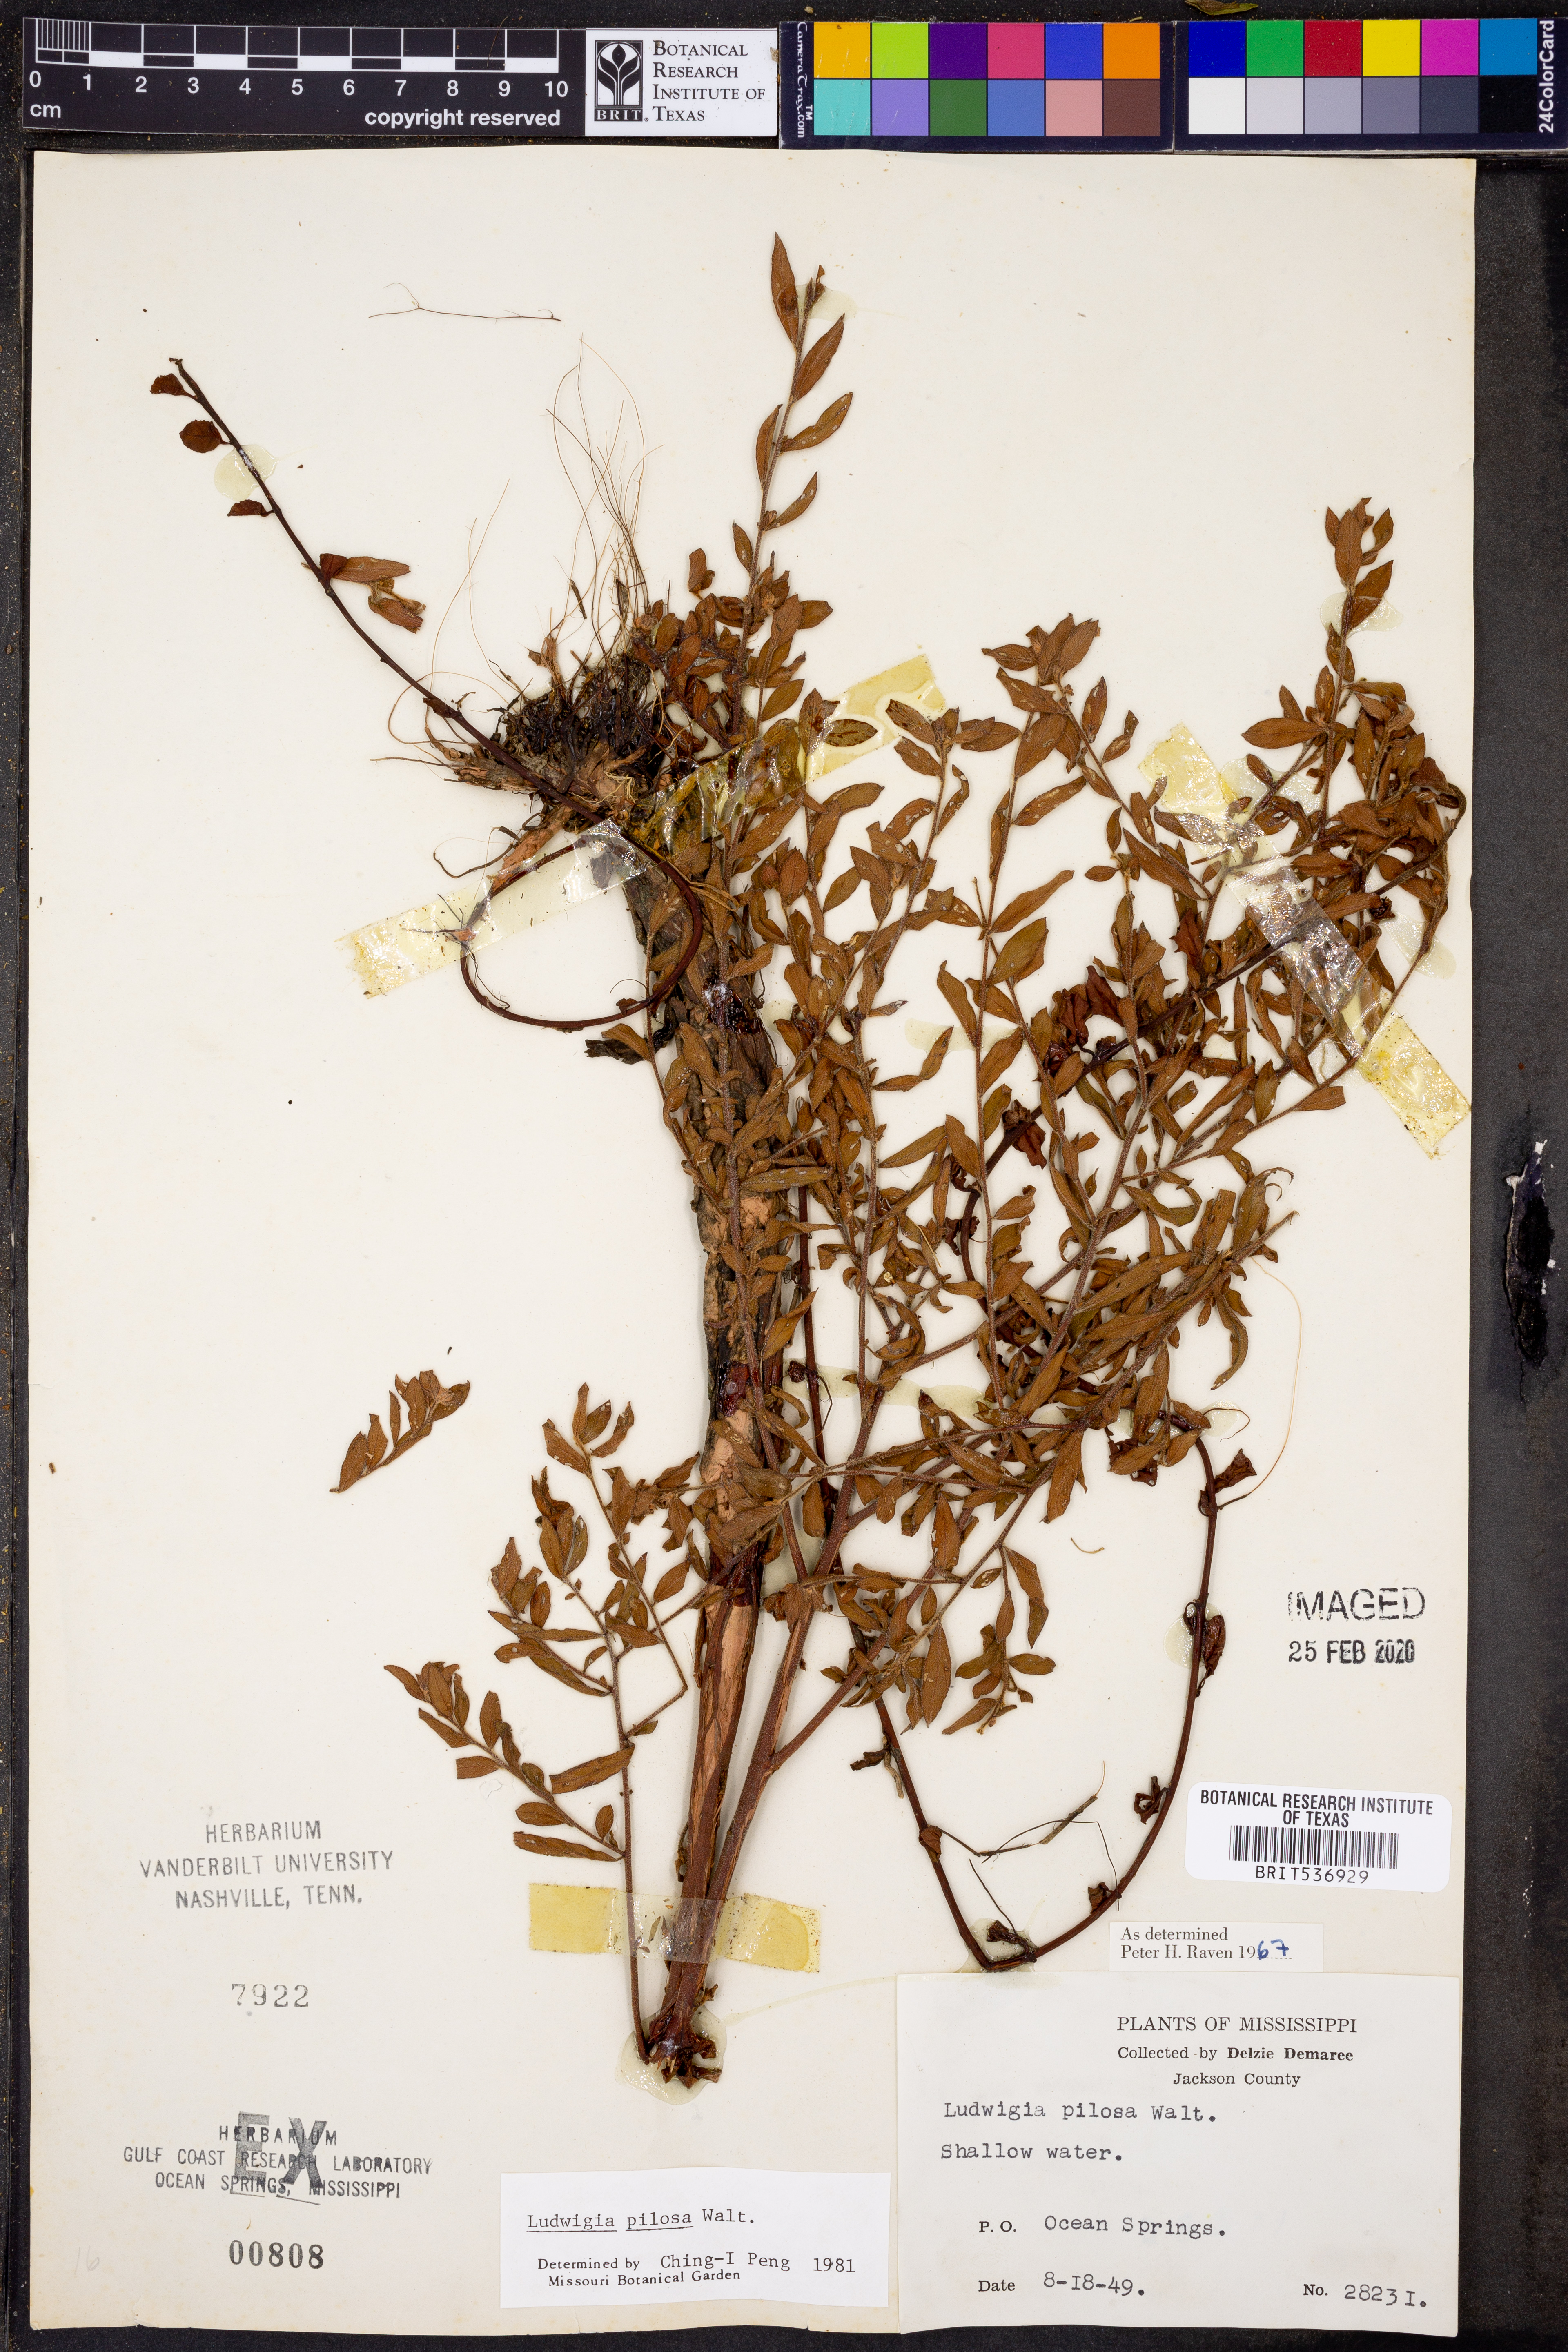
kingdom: Plantae
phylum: Tracheophyta
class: Magnoliopsida
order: Myrtales
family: Onagraceae
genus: Ludwigia
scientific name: Ludwigia pilosa
